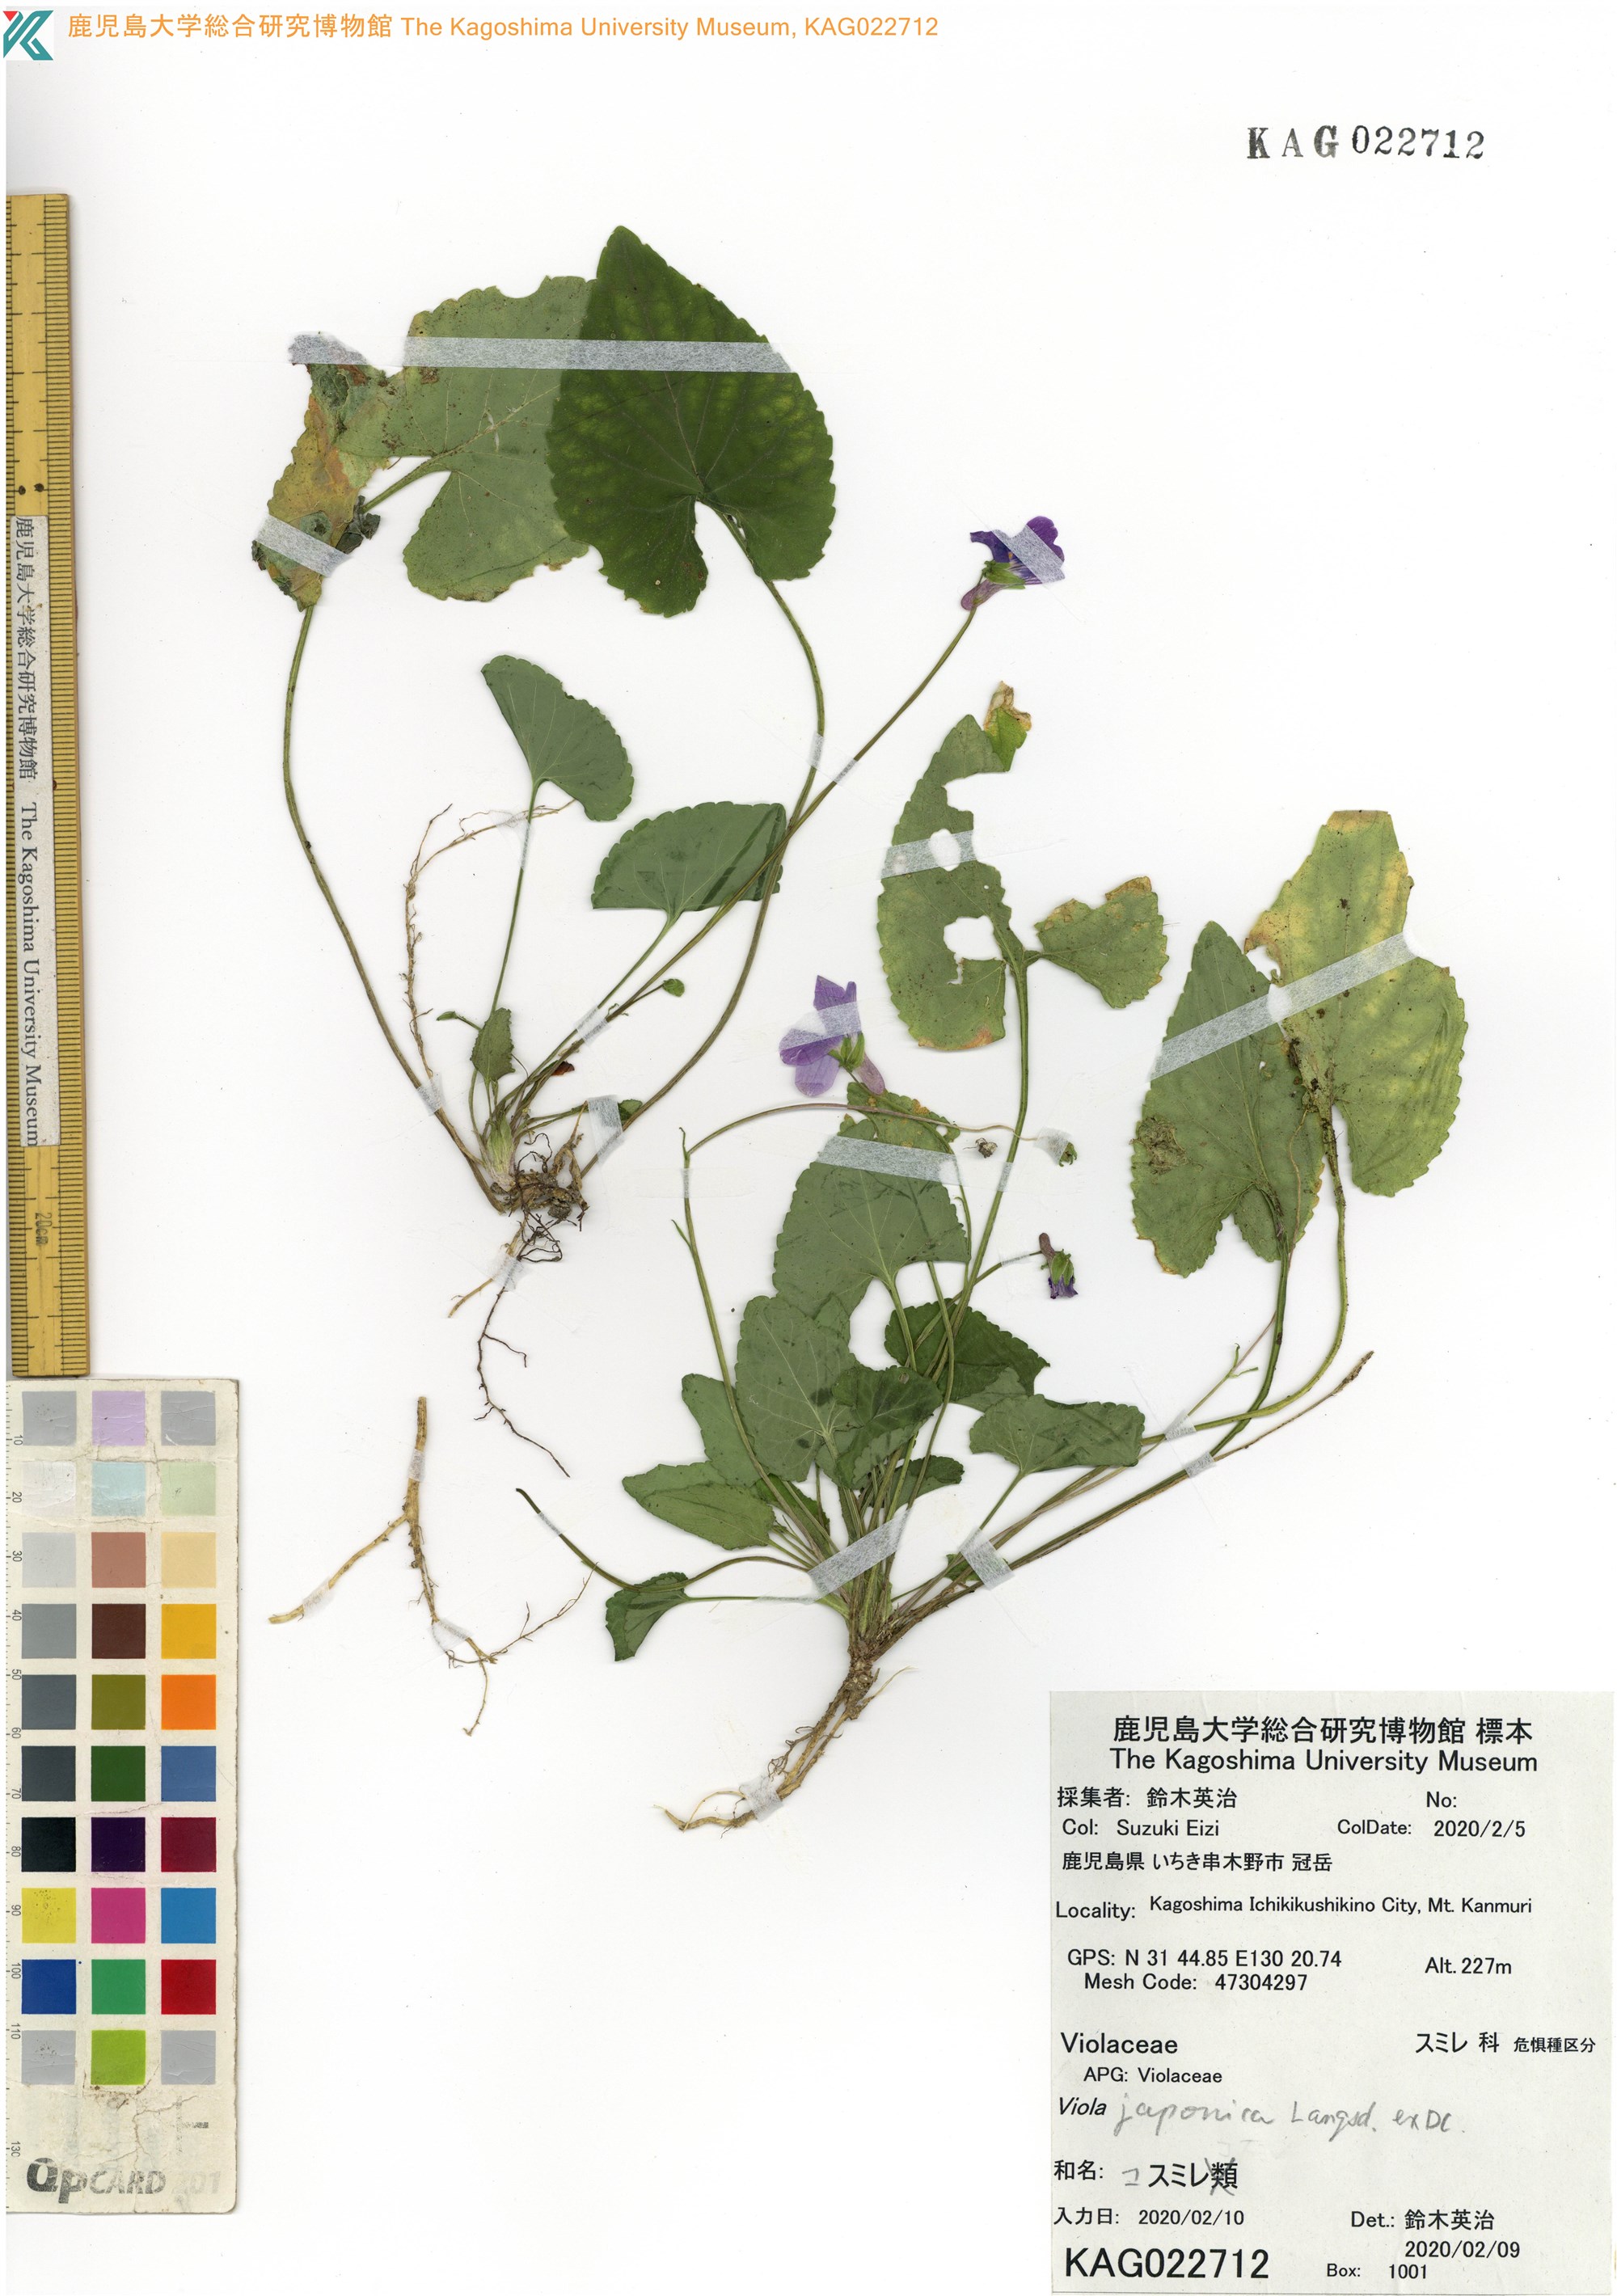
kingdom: Plantae
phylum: Tracheophyta
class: Magnoliopsida
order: Malpighiales
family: Violaceae
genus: Viola
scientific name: Viola japonica
